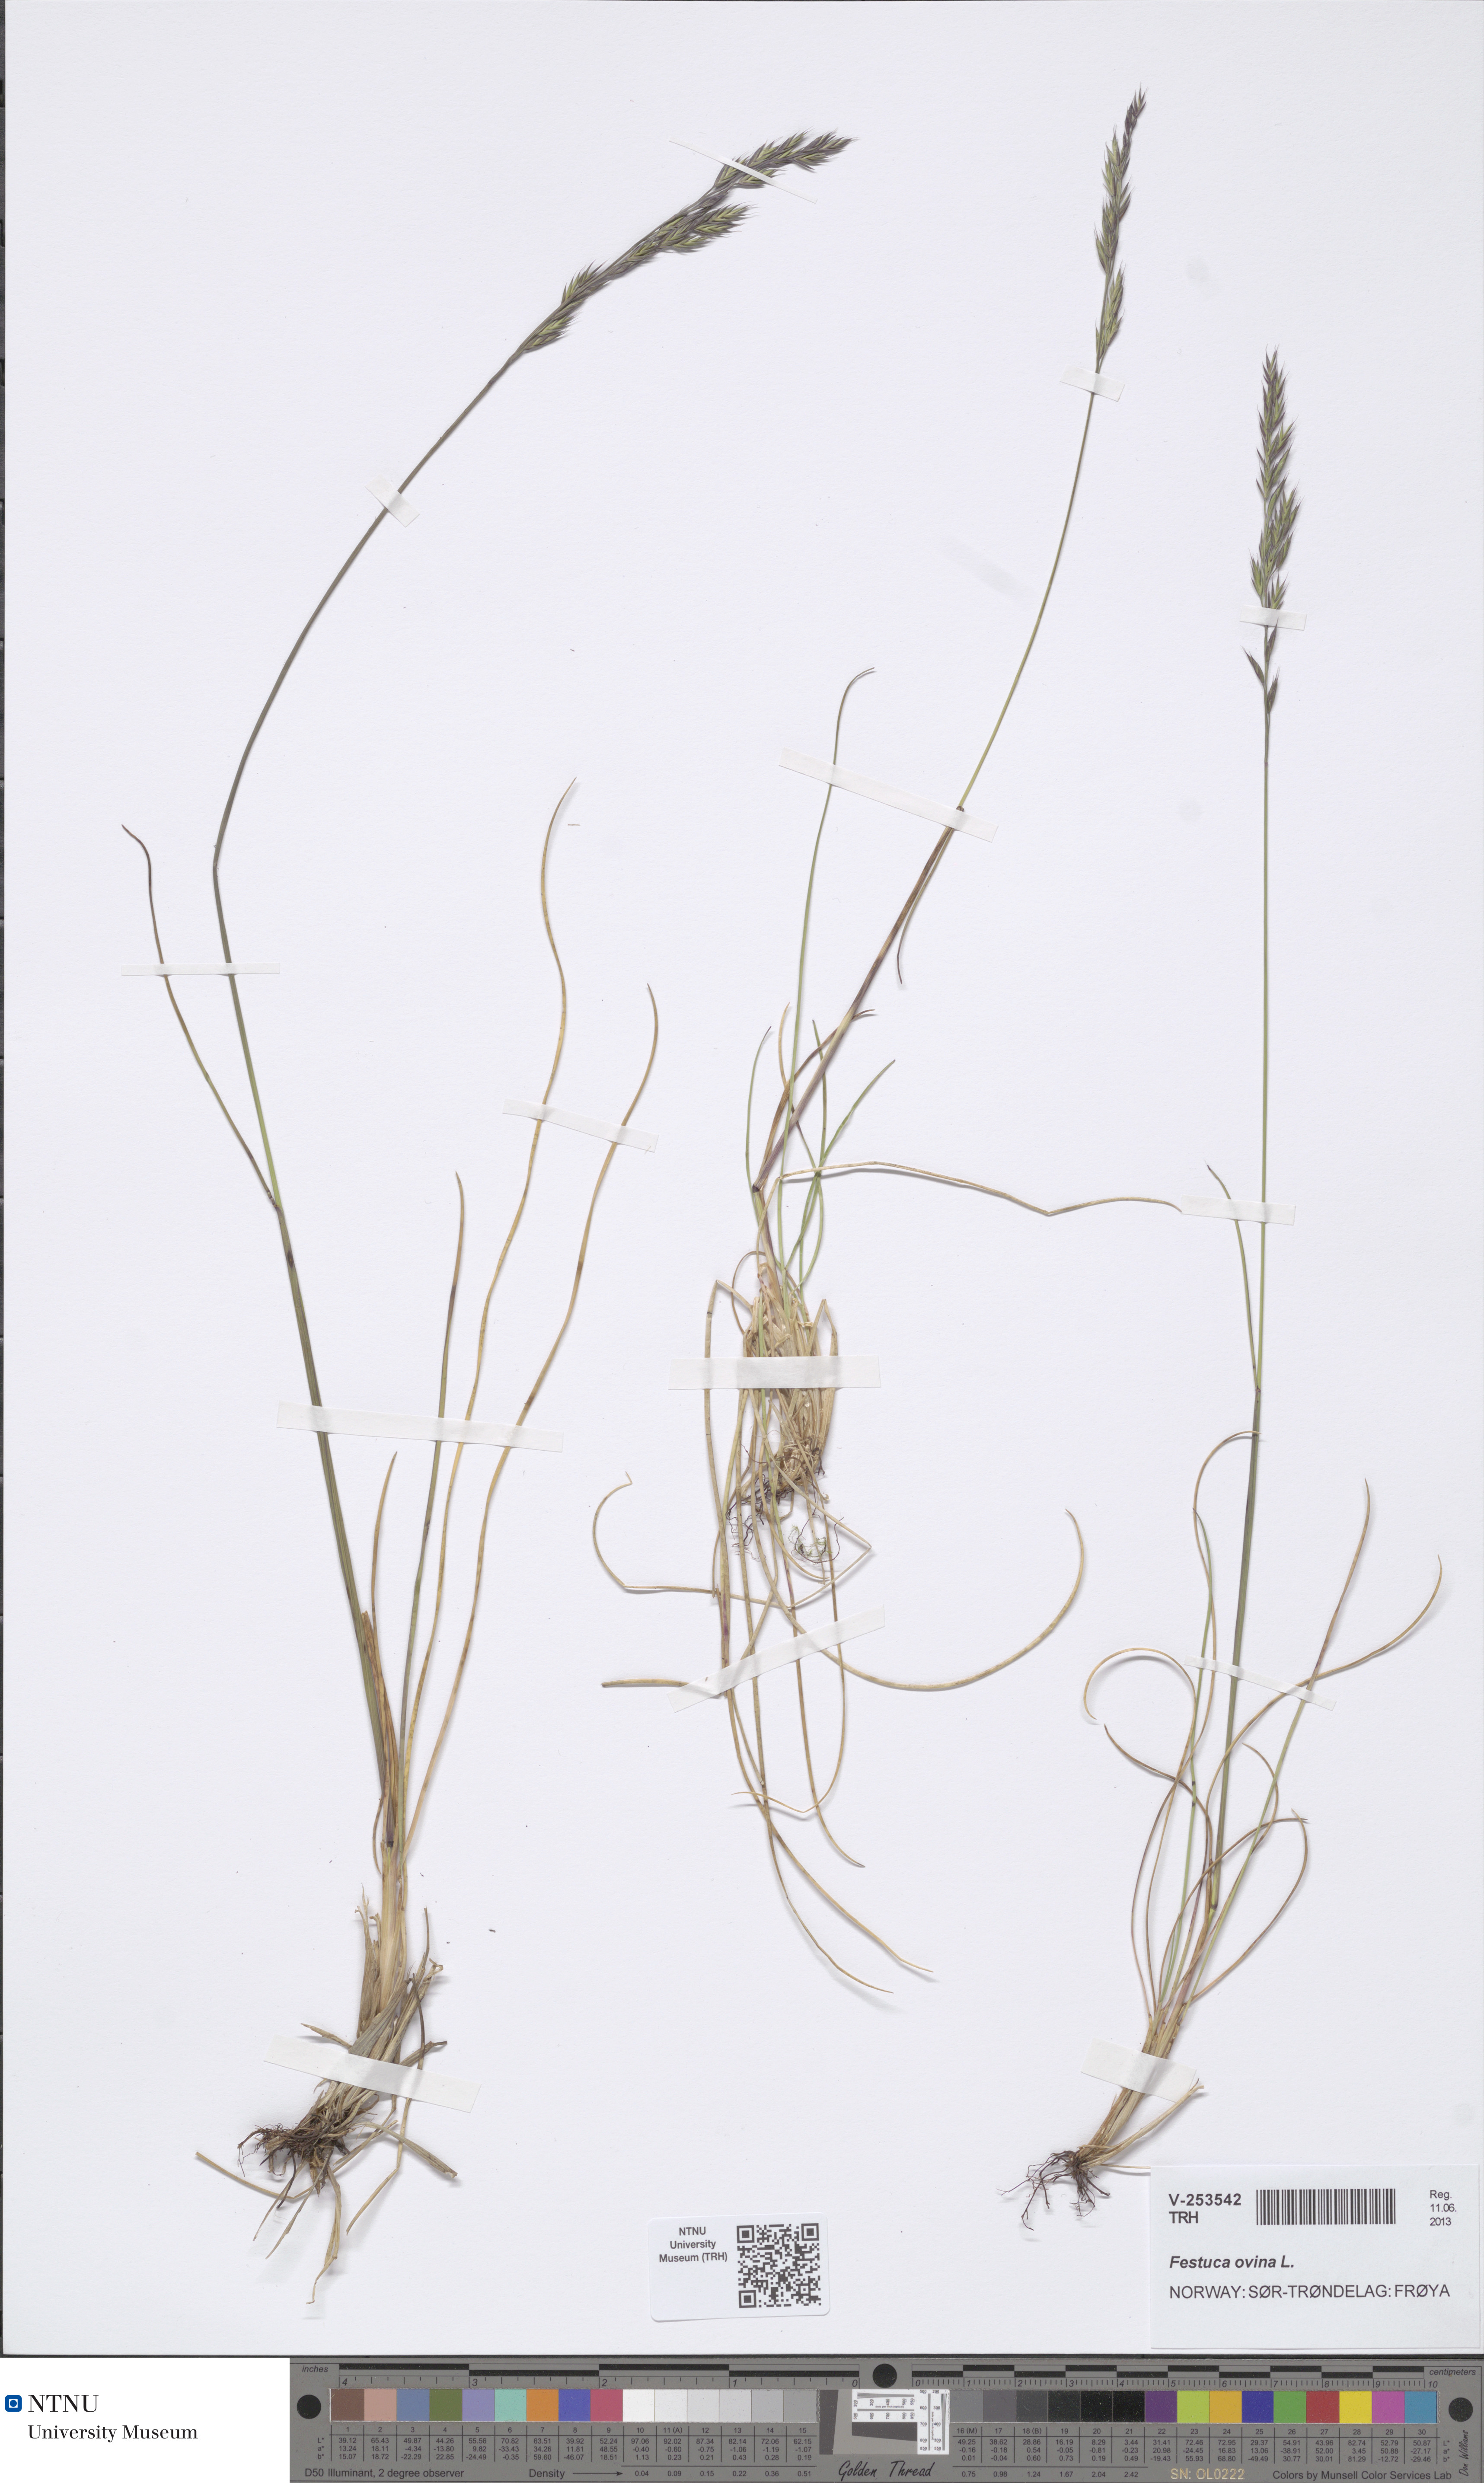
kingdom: Plantae
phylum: Tracheophyta
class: Liliopsida
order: Poales
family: Poaceae
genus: Festuca
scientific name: Festuca ovina
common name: Sheep fescue
